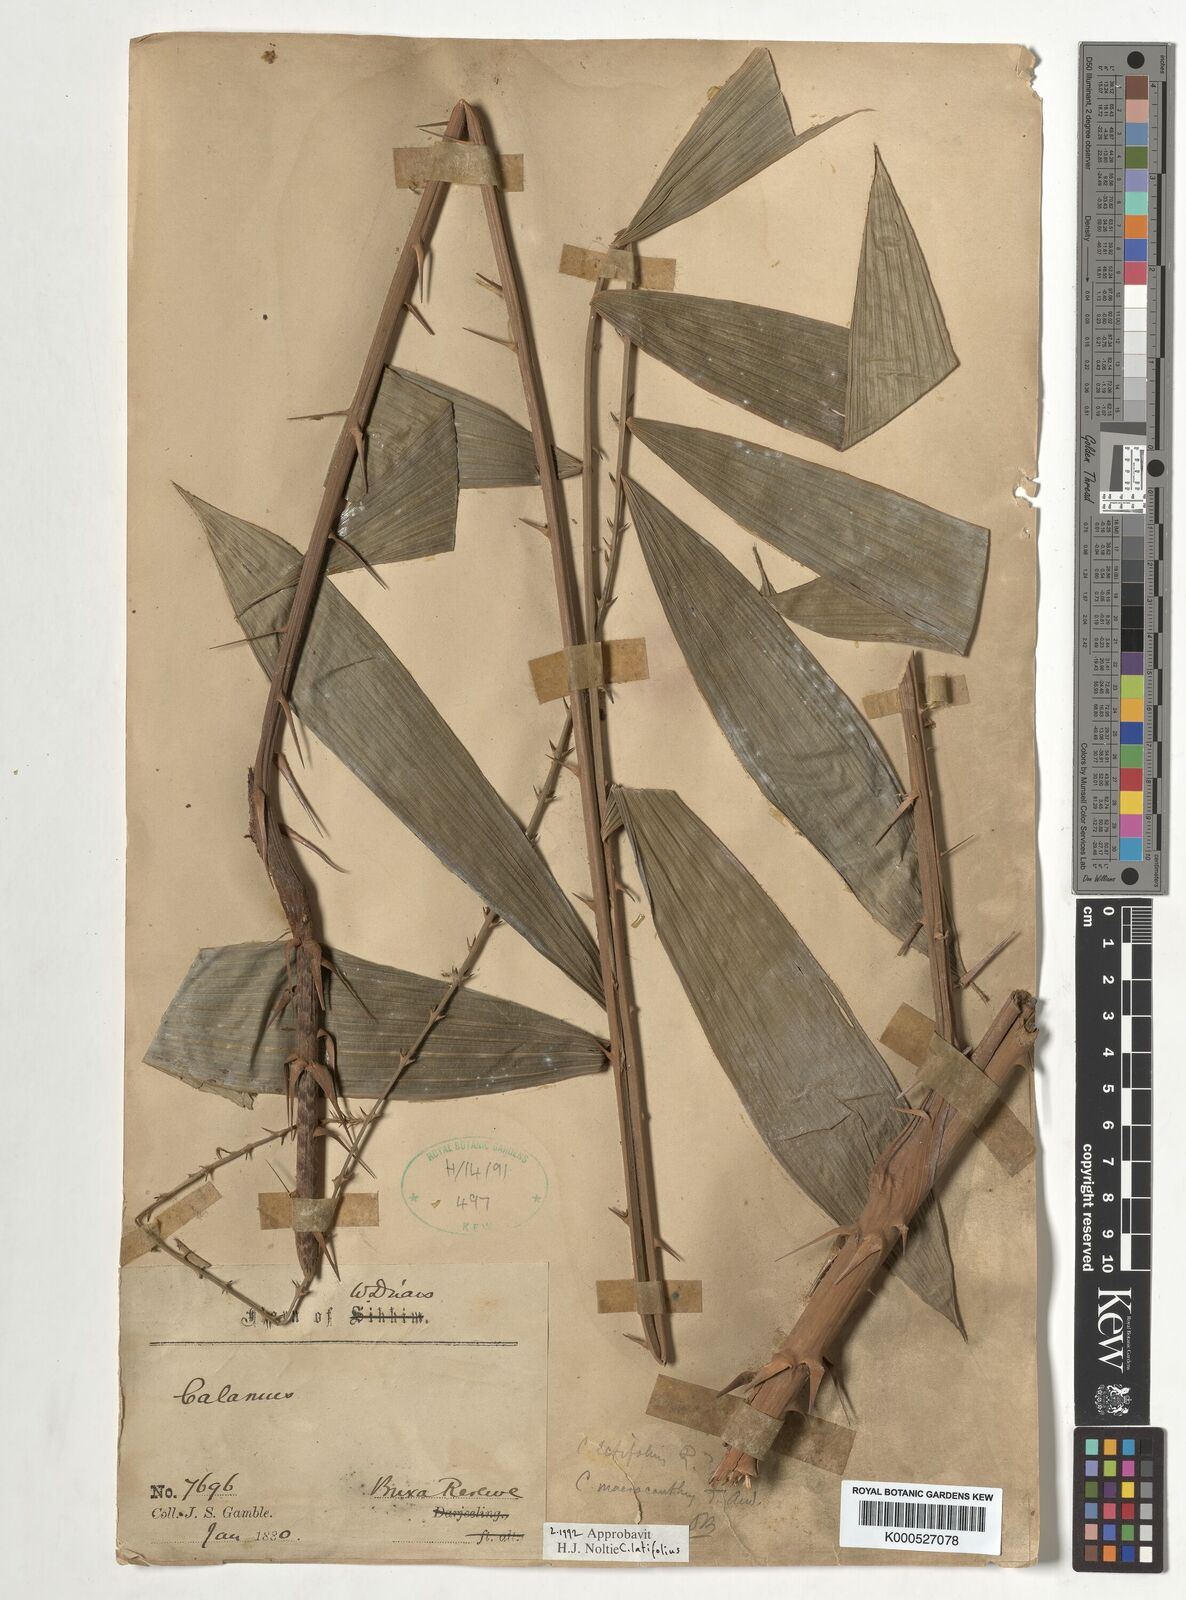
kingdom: Plantae
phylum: Tracheophyta
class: Liliopsida
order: Arecales
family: Arecaceae
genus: Calamus
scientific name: Calamus latifolius
